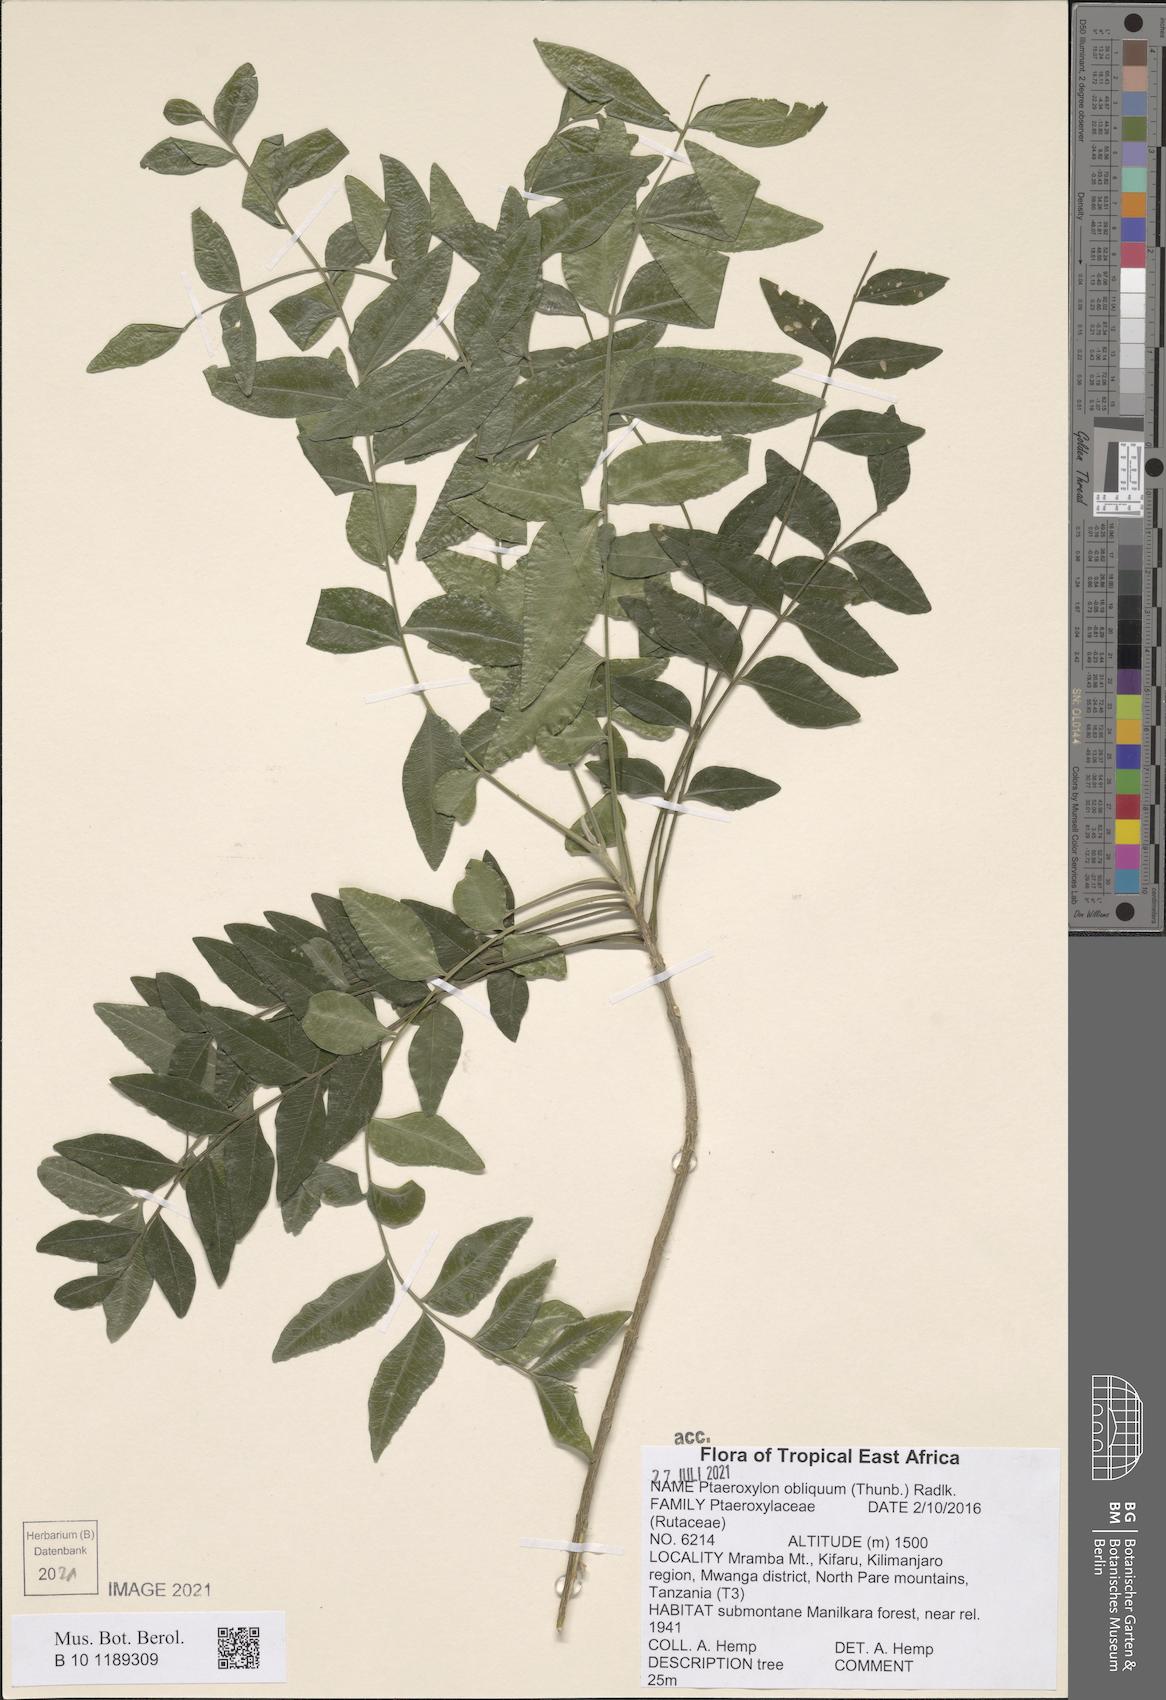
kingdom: Plantae
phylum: Tracheophyta
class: Magnoliopsida
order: Sapindales
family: Rutaceae
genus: Ptaeroxylon
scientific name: Ptaeroxylon obliquum
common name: Sneezewood
